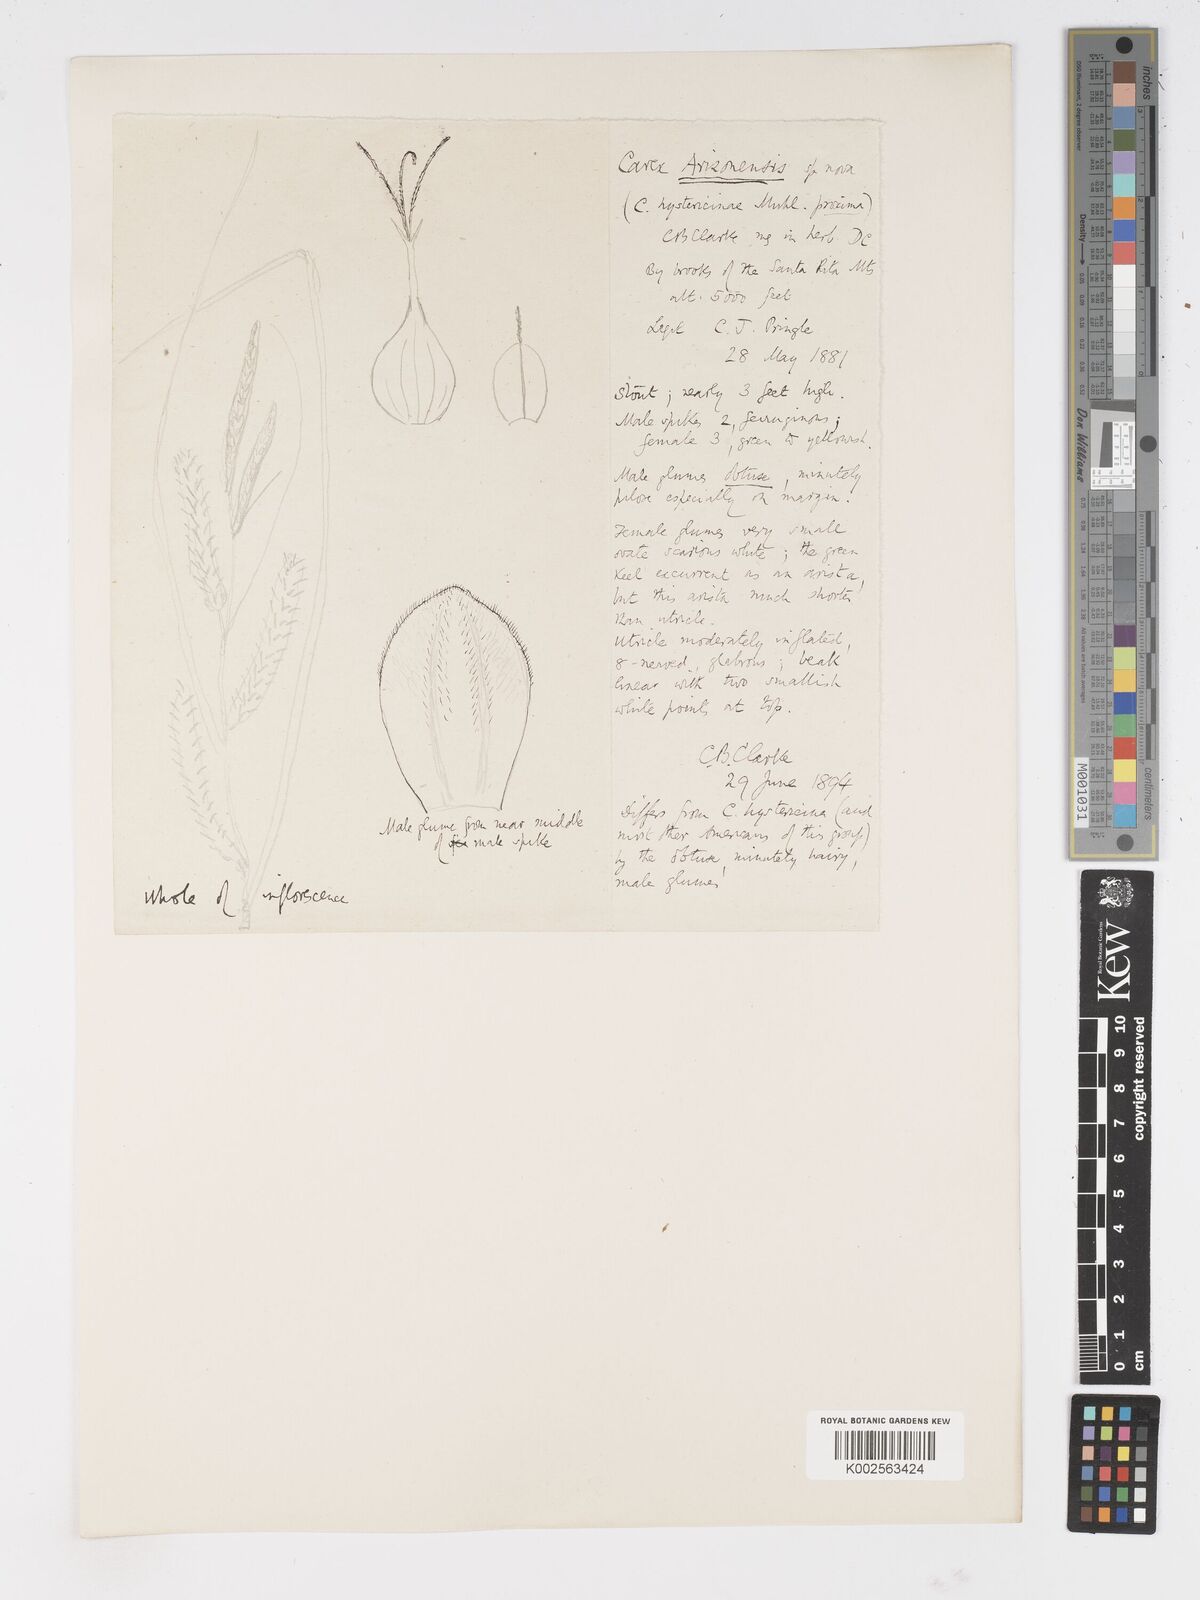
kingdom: Plantae
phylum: Tracheophyta
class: Liliopsida
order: Poales
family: Cyperaceae
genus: Carex
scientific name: Carex atherodes
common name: Wheat sedge
